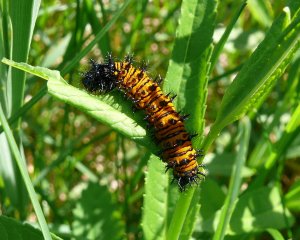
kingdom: Animalia
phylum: Arthropoda
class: Insecta
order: Lepidoptera
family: Nymphalidae
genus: Euphydryas
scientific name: Euphydryas phaeton
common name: Baltimore Checkerspot
